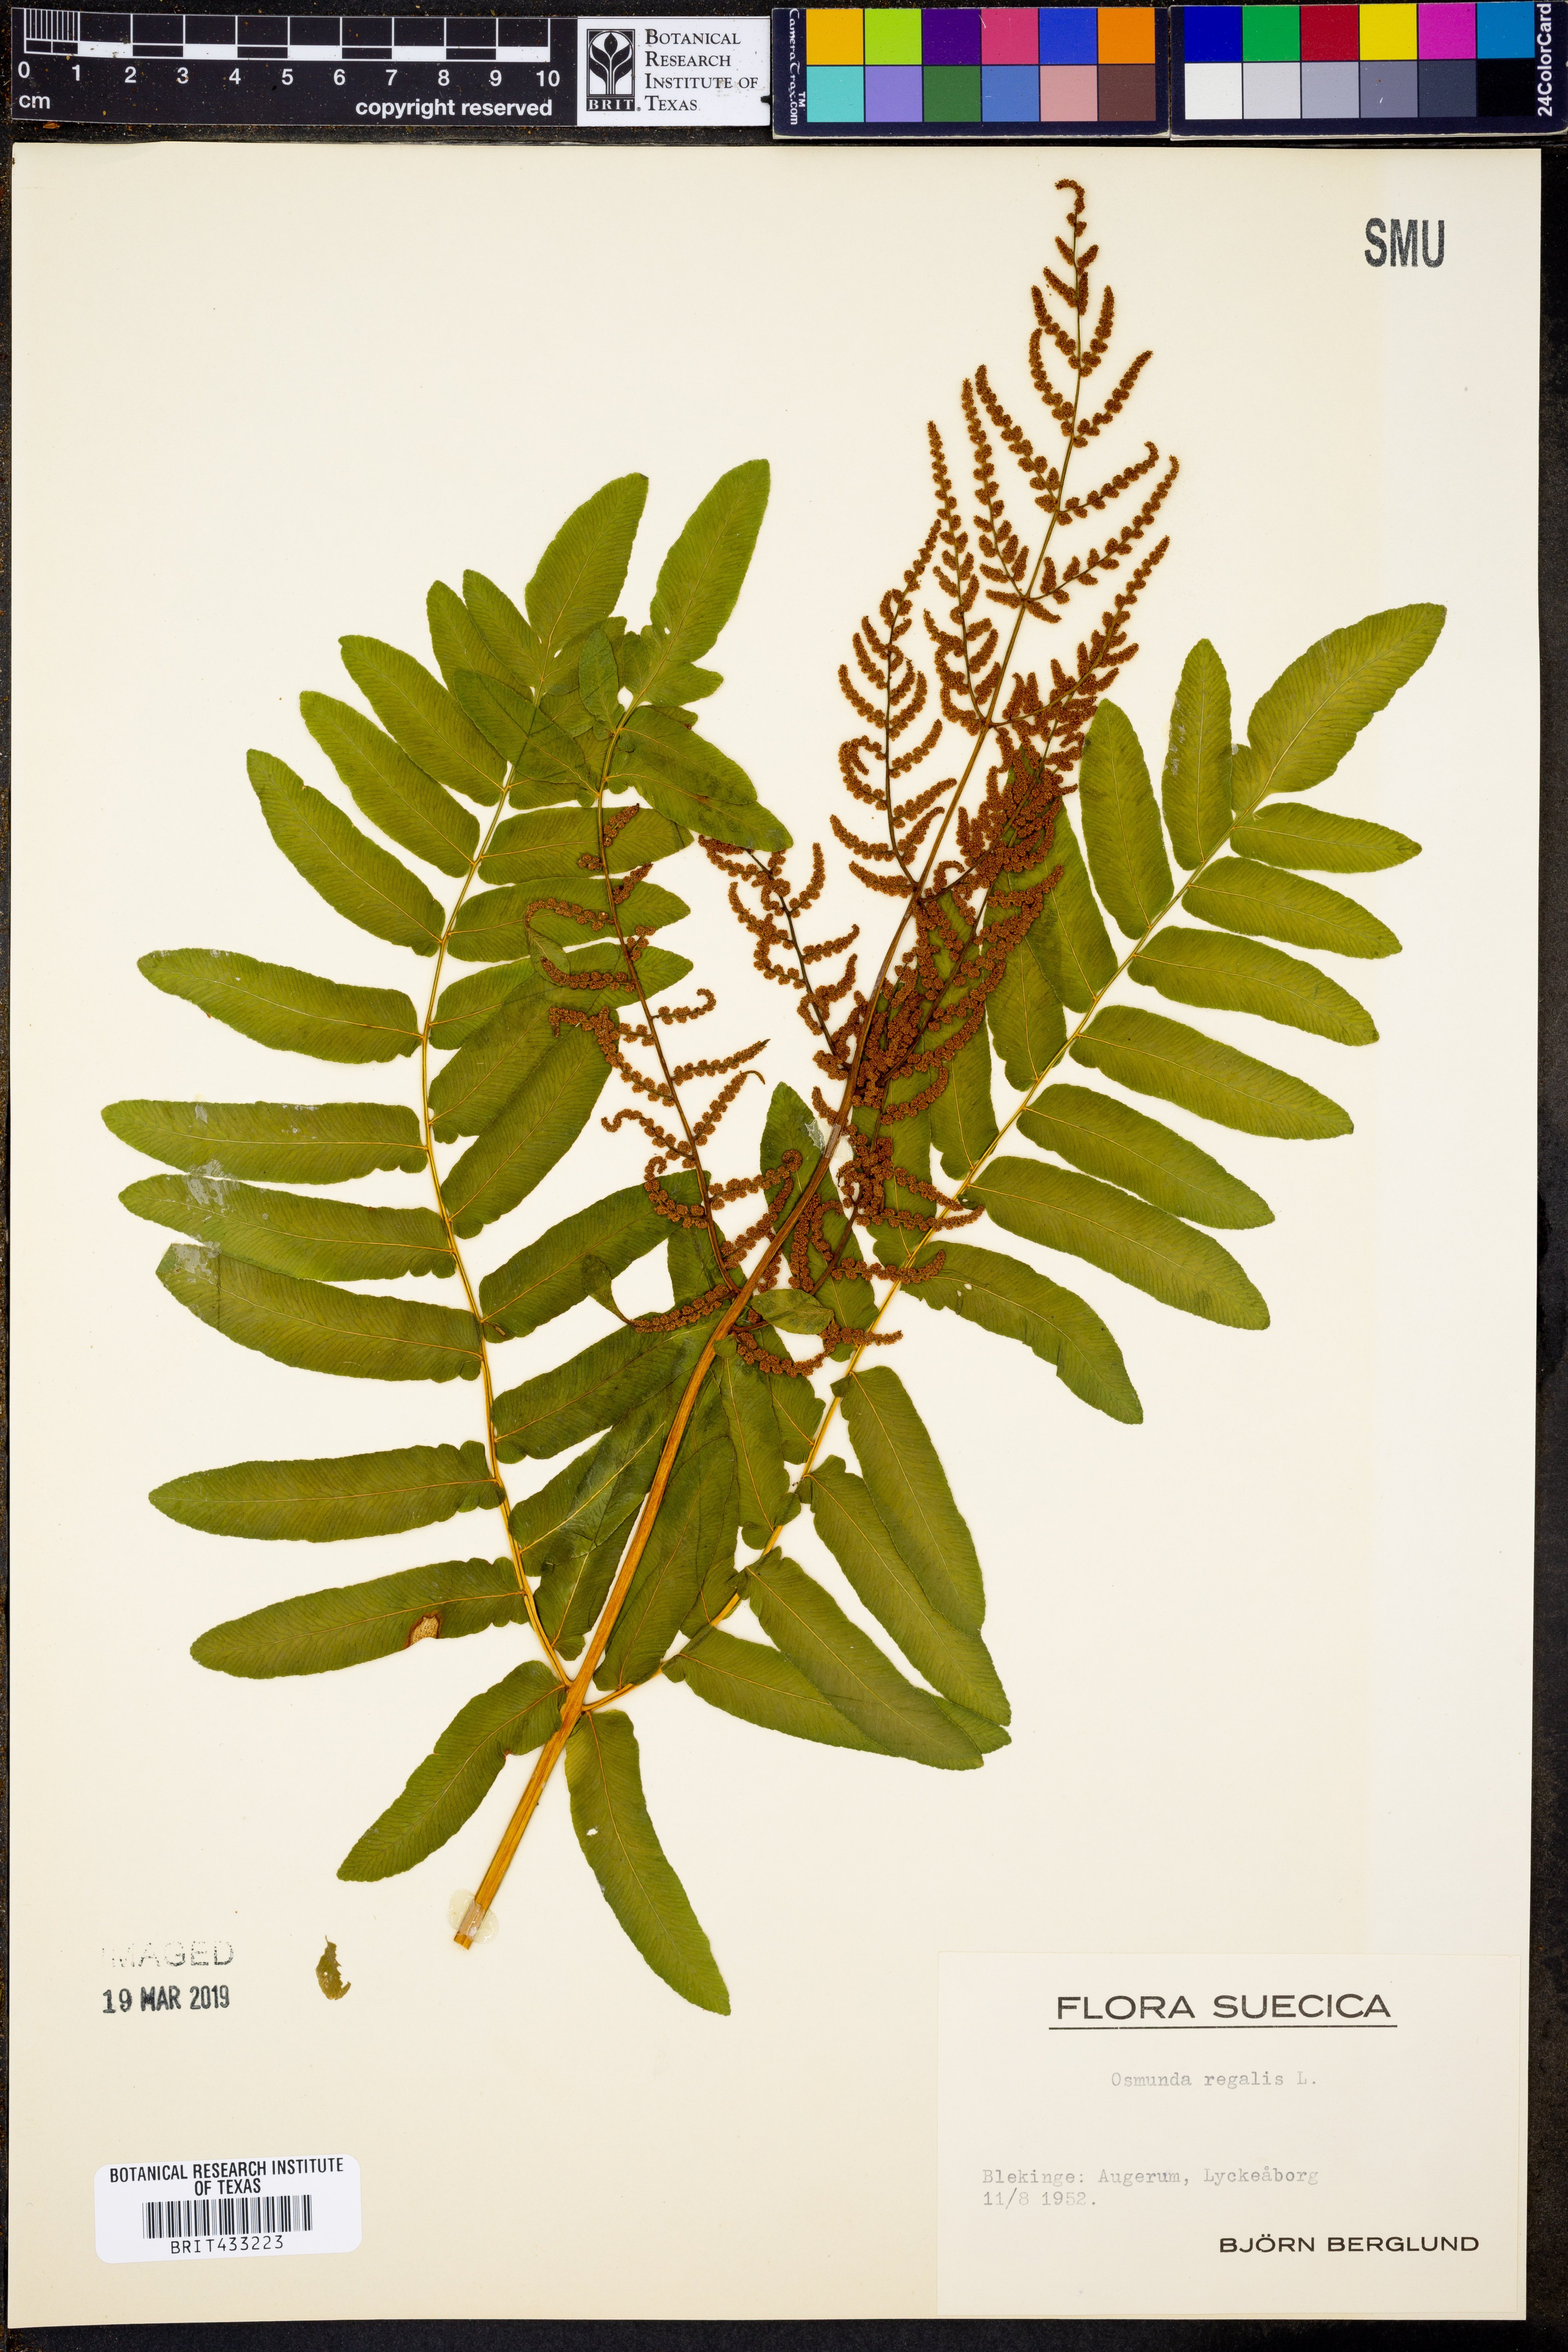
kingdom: Plantae
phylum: Tracheophyta
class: Polypodiopsida
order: Osmundales
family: Osmundaceae
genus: Osmunda
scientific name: Osmunda regalis
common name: Royal fern
